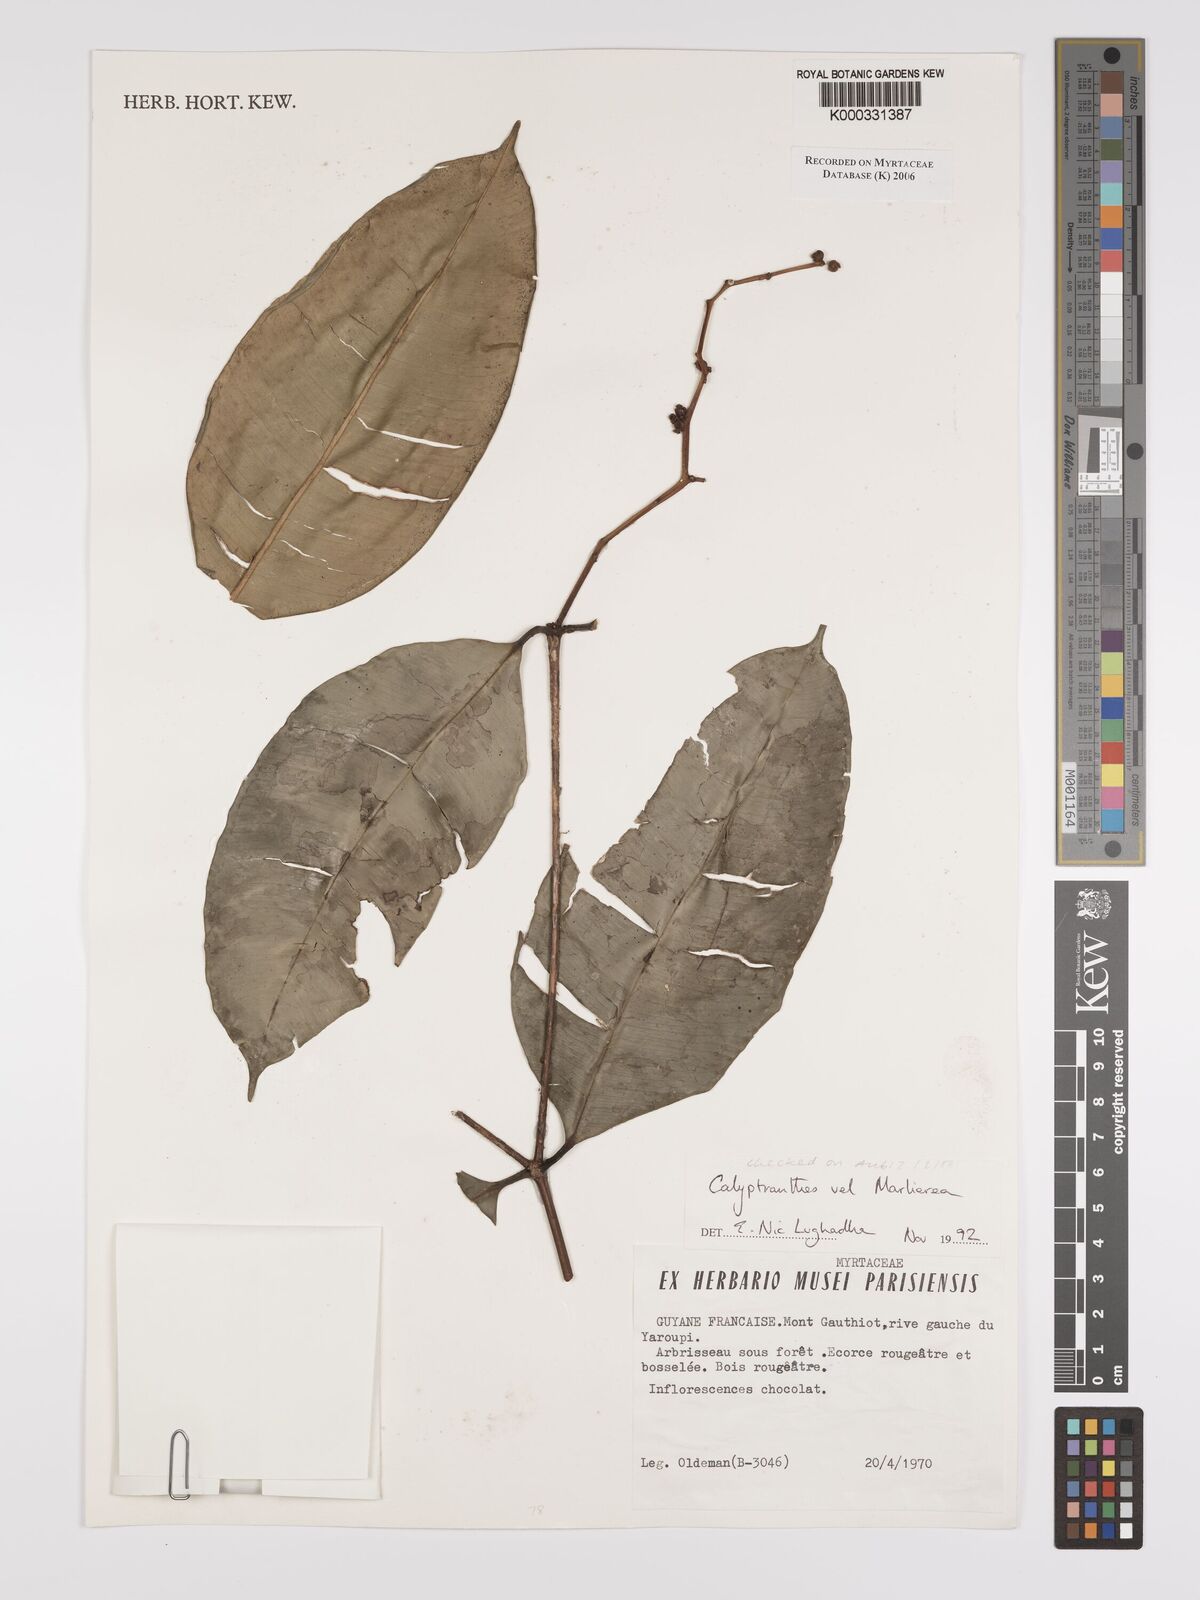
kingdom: Plantae
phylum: Tracheophyta
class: Magnoliopsida
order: Myrtales
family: Myrtaceae
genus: Calyptranthes
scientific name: Calyptranthes
